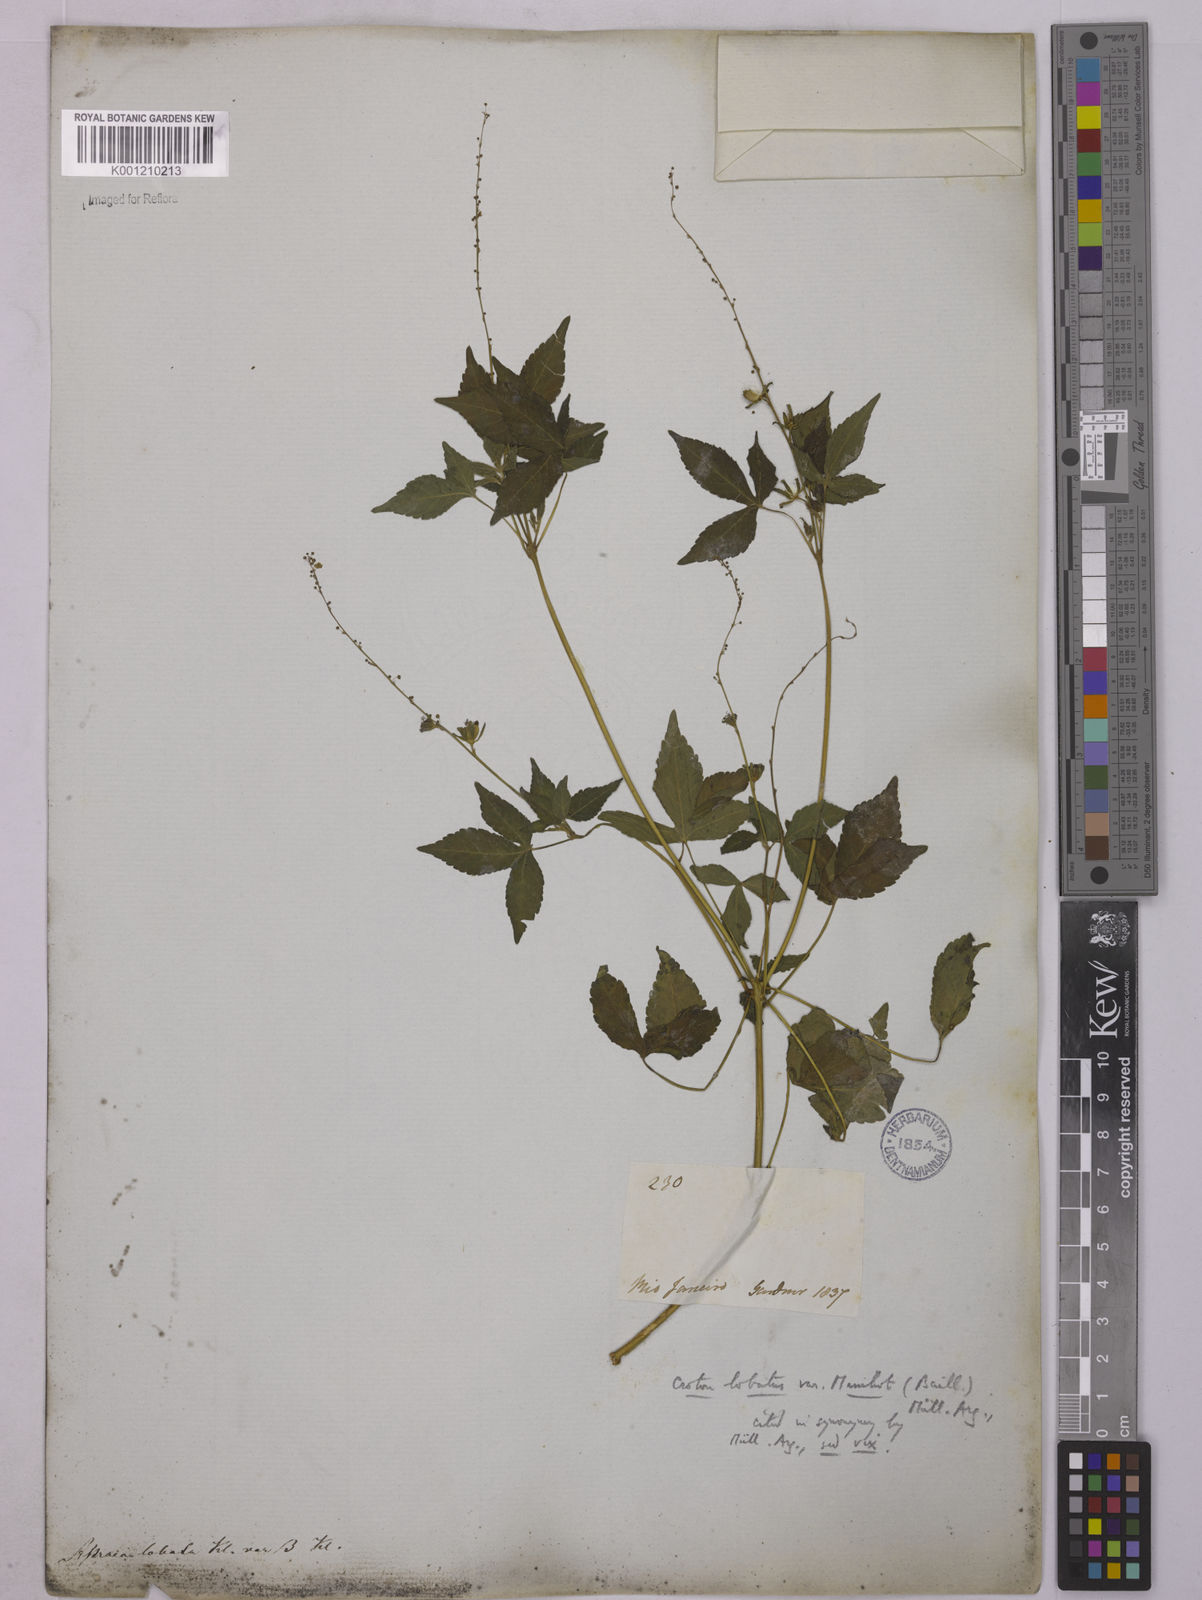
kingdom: Plantae
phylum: Tracheophyta
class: Magnoliopsida
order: Malpighiales
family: Euphorbiaceae
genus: Astraea
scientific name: Astraea lobata
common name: Lobed croton
